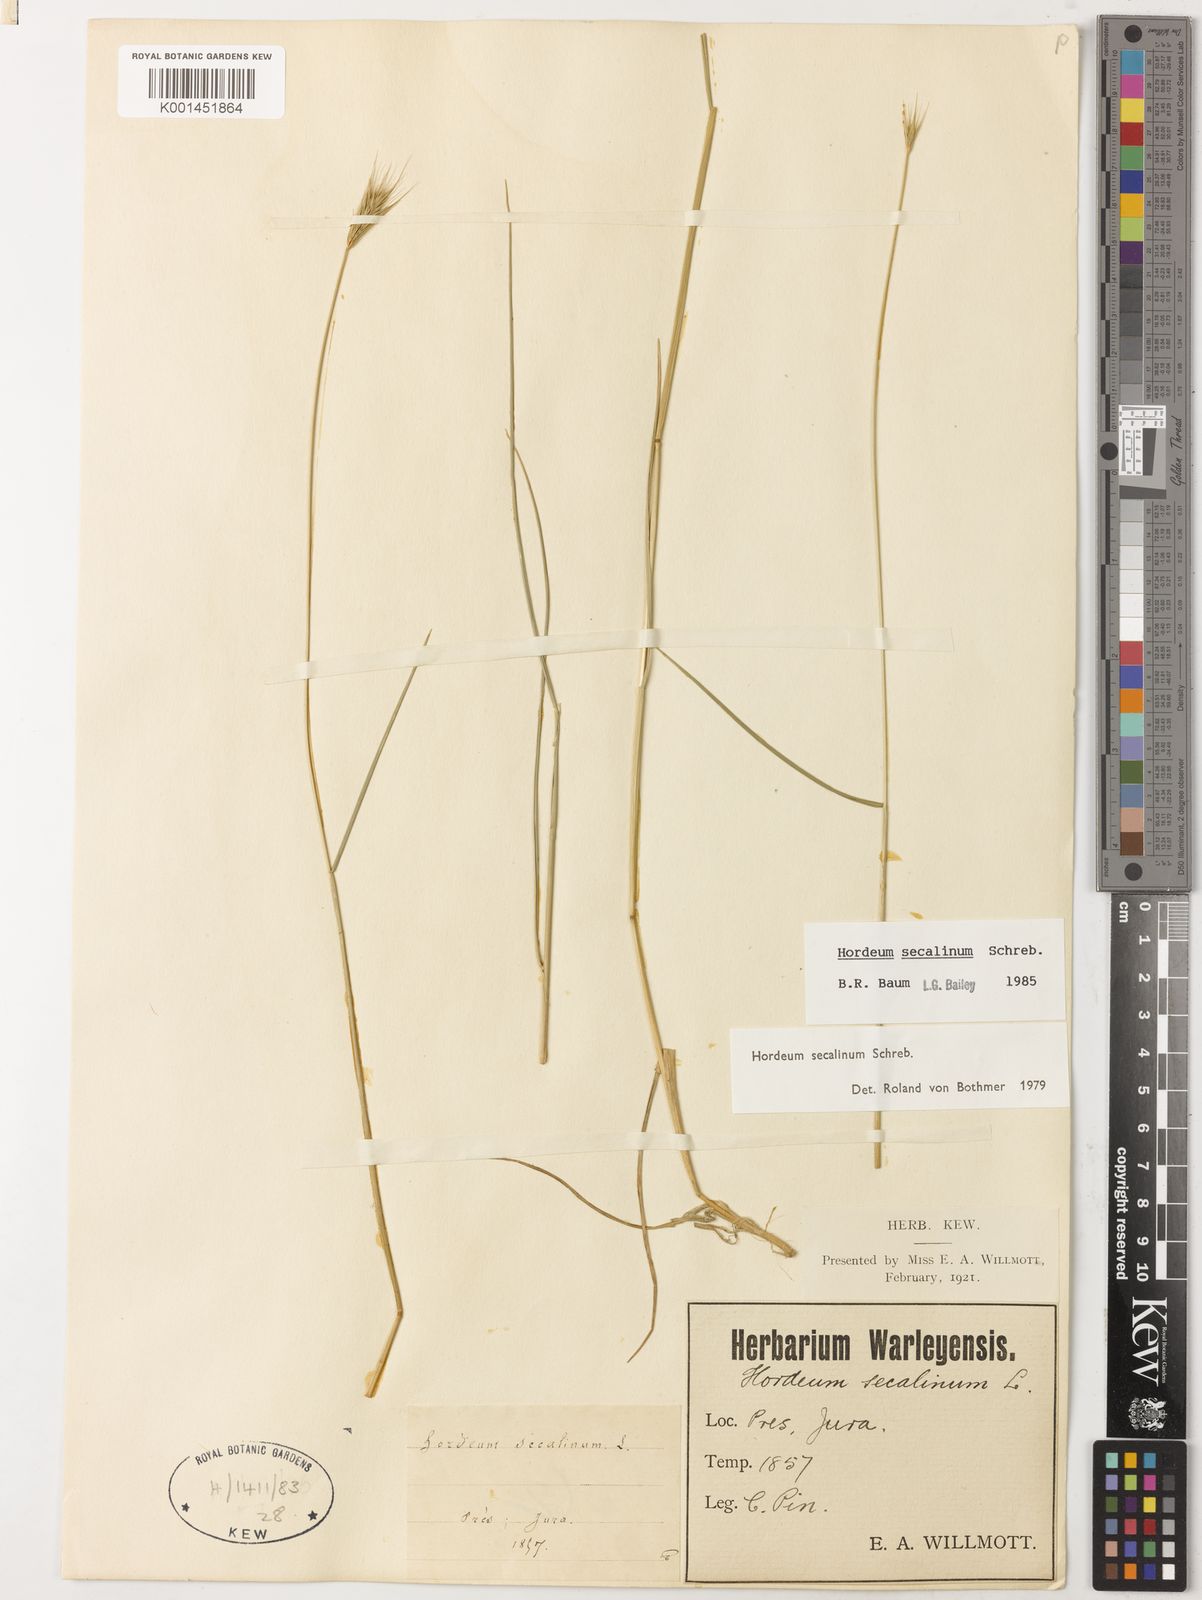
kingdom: Plantae
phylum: Tracheophyta
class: Liliopsida
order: Poales
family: Poaceae
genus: Hordeum
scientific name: Hordeum secalinum
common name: Meadow barley
